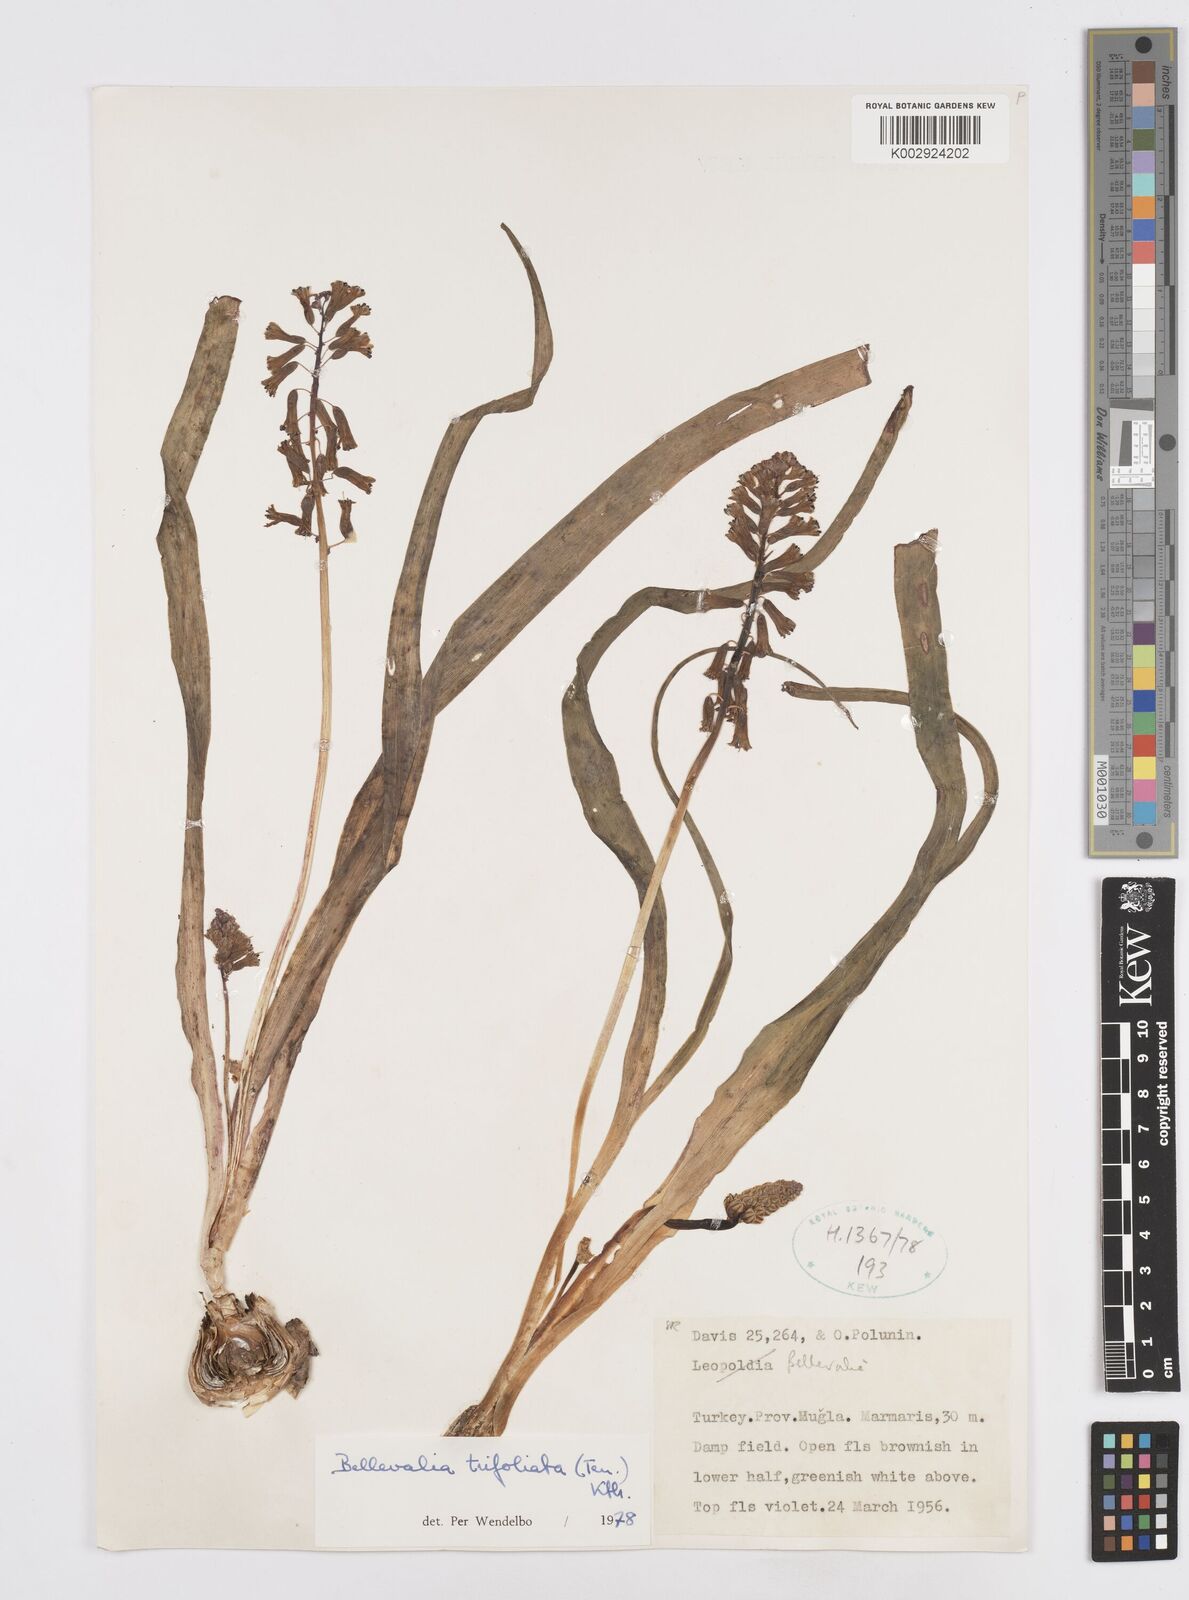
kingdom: Plantae
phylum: Tracheophyta
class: Liliopsida
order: Asparagales
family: Asparagaceae
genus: Bellevalia
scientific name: Bellevalia trifoliata
